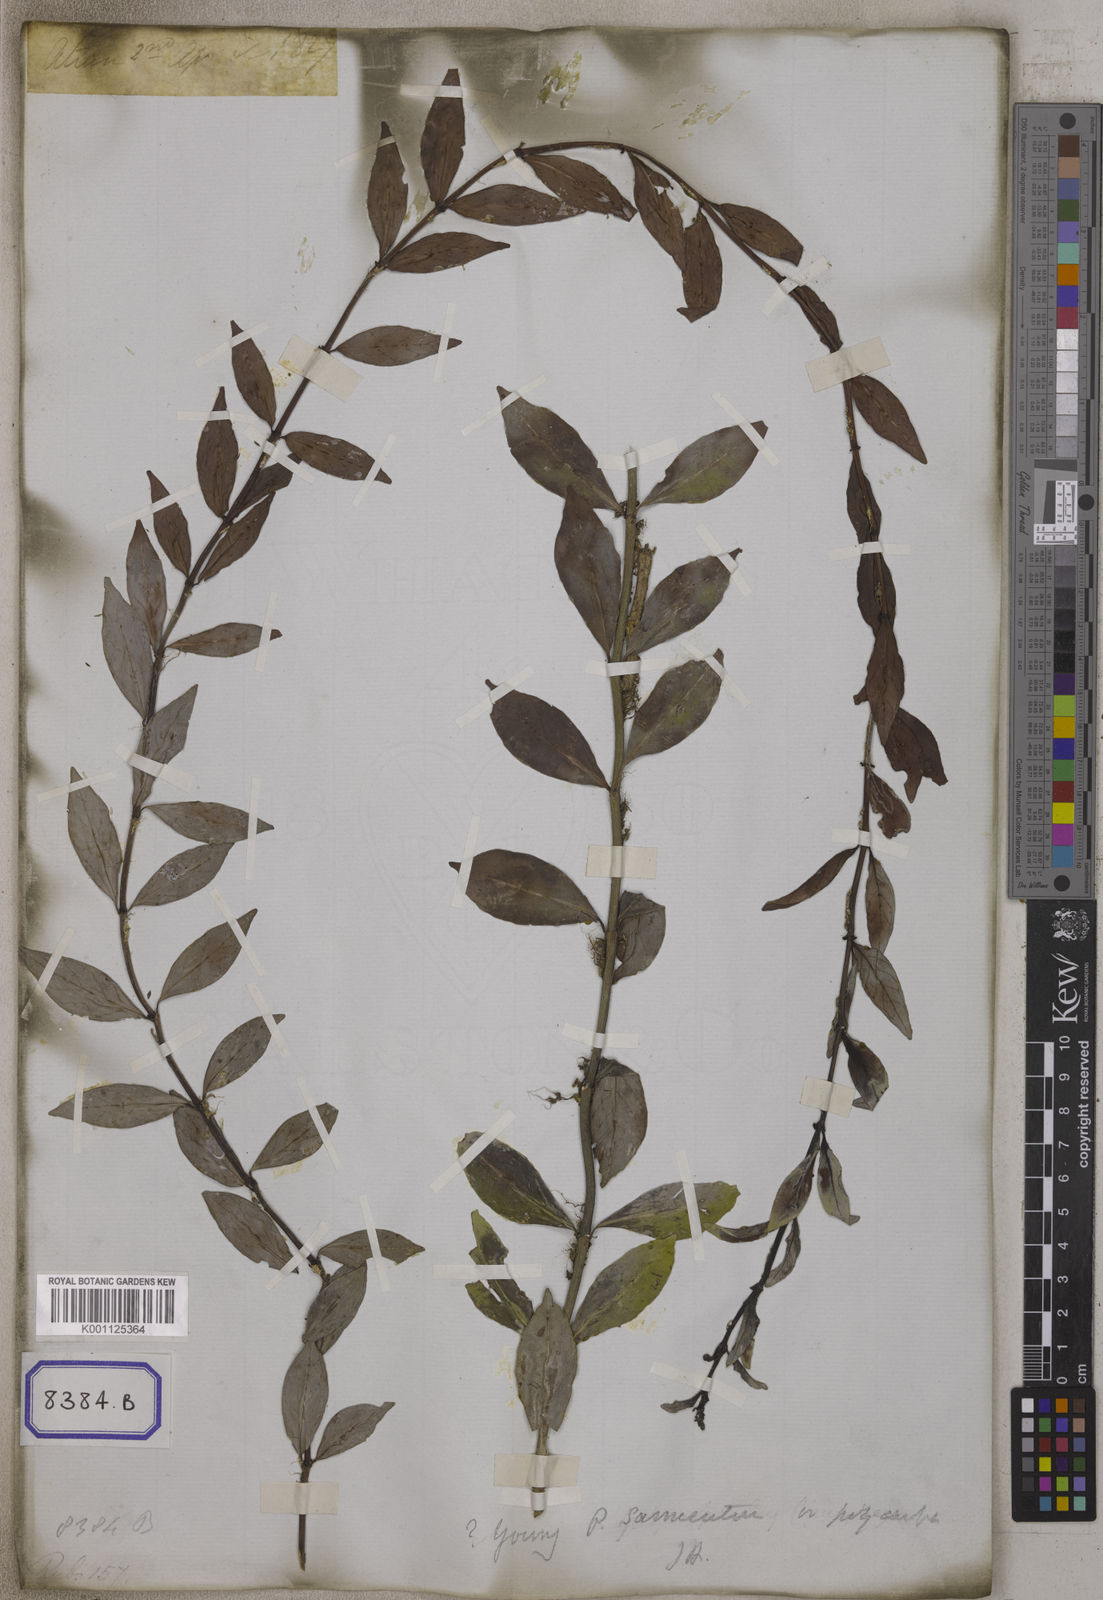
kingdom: Plantae
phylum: Tracheophyta
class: Magnoliopsida
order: Gentianales
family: Rubiaceae
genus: Psychotria
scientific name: Psychotria
